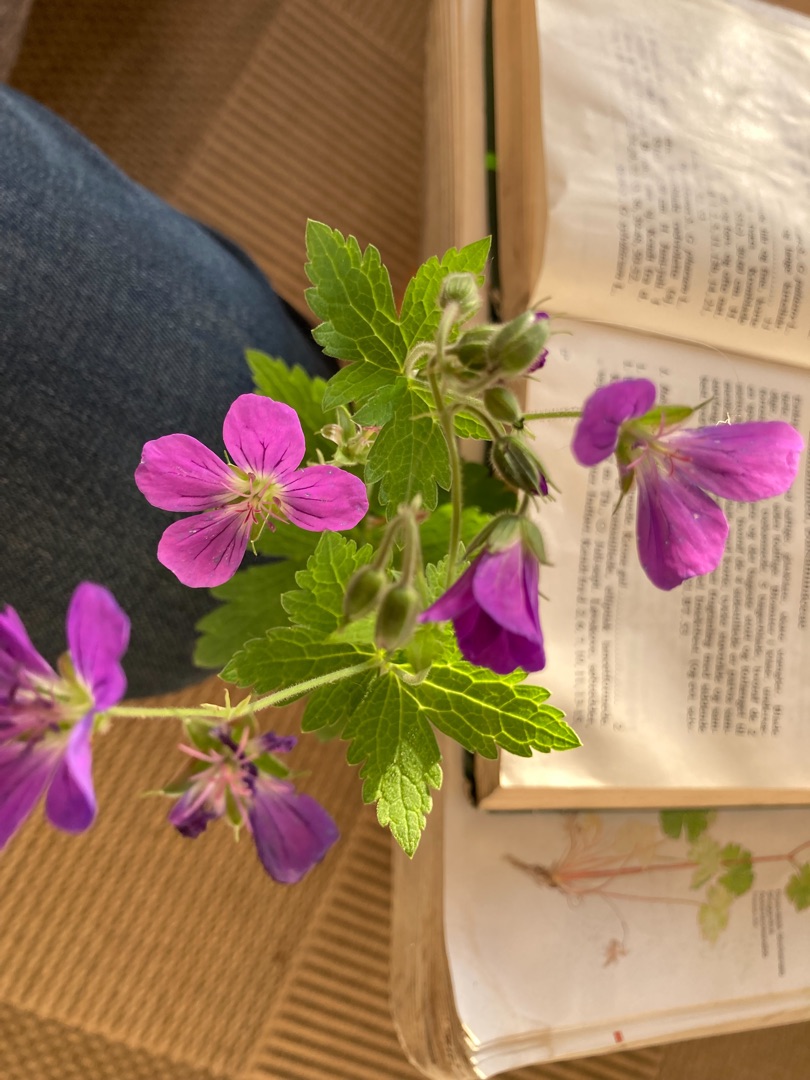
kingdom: Plantae
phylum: Tracheophyta
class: Magnoliopsida
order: Geraniales
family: Geraniaceae
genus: Geranium
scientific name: Geranium sylvaticum
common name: Skov-storkenæb
